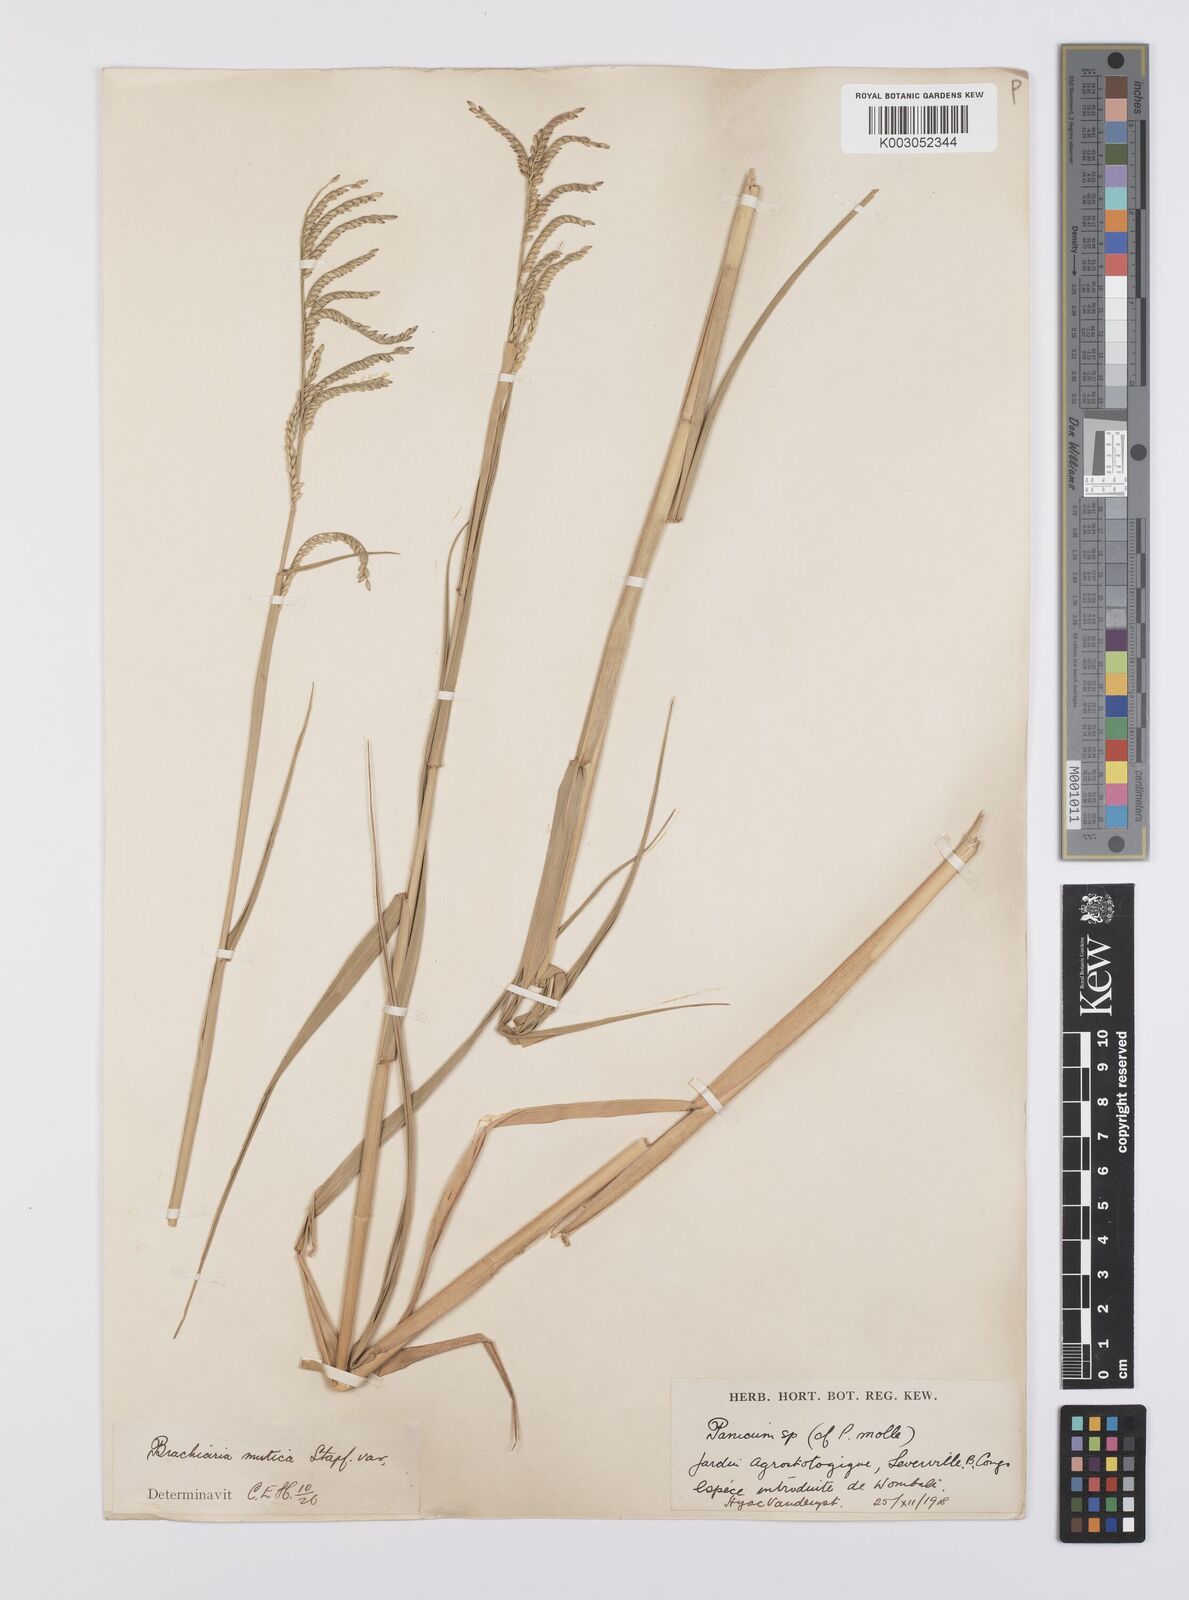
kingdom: Plantae
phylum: Tracheophyta
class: Liliopsida
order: Poales
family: Poaceae
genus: Urochloa
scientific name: Urochloa arrecta
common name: African signalgrass
